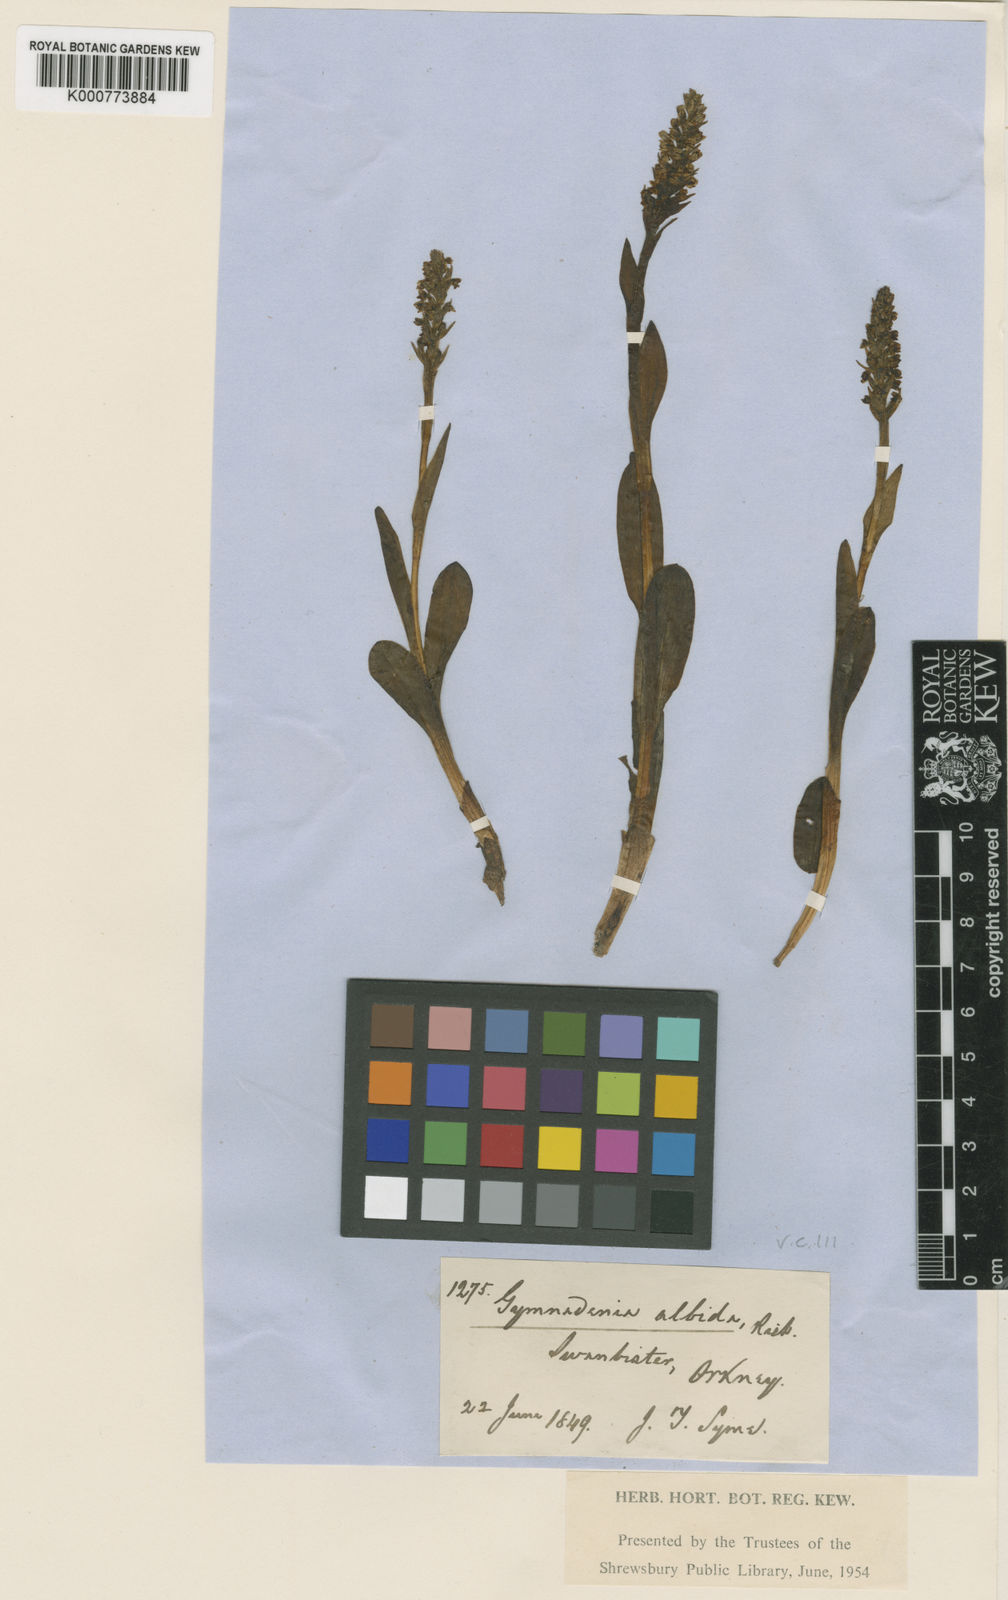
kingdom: Plantae
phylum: Tracheophyta
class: Liliopsida
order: Asparagales
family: Orchidaceae
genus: Pseudorchis
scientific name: Pseudorchis
